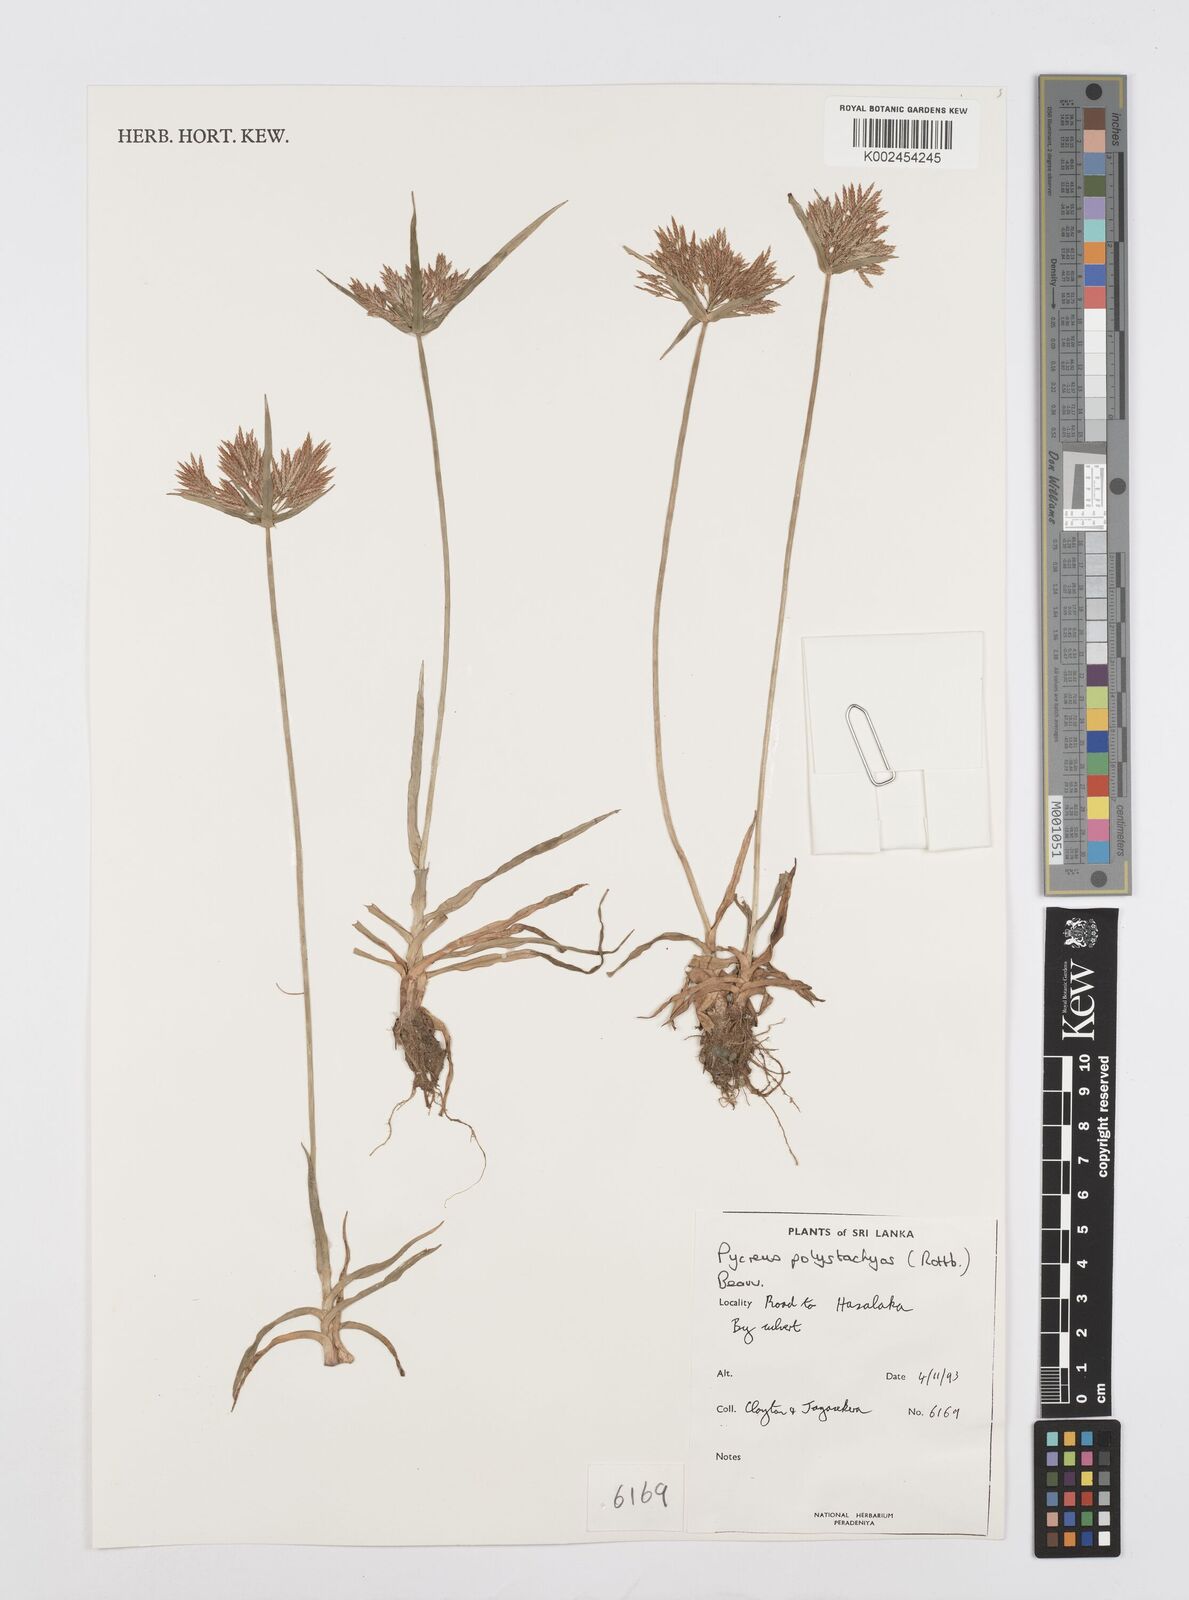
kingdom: Plantae
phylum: Tracheophyta
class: Liliopsida
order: Poales
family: Cyperaceae
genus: Cyperus
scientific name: Cyperus polystachyos
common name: Bunchy flat sedge
